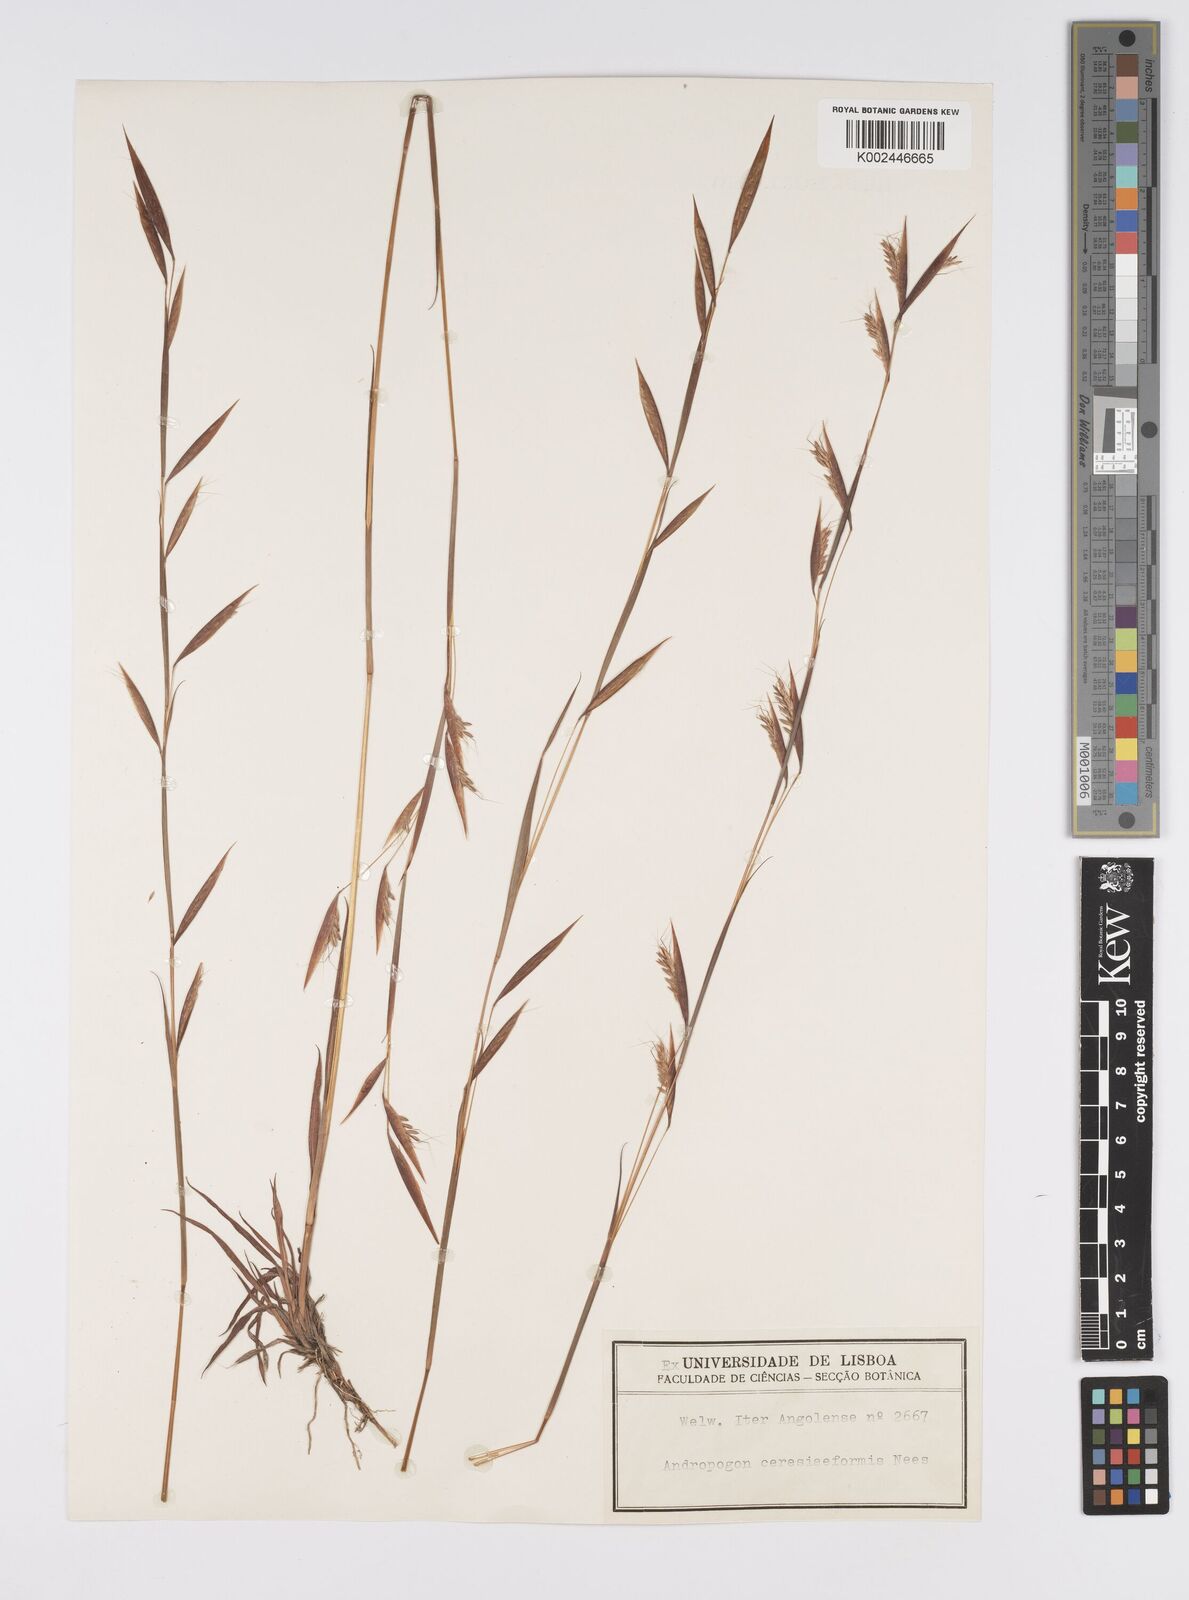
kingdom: Plantae
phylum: Tracheophyta
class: Liliopsida
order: Poales
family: Poaceae
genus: Monocymbium
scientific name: Monocymbium ceresiiforme
